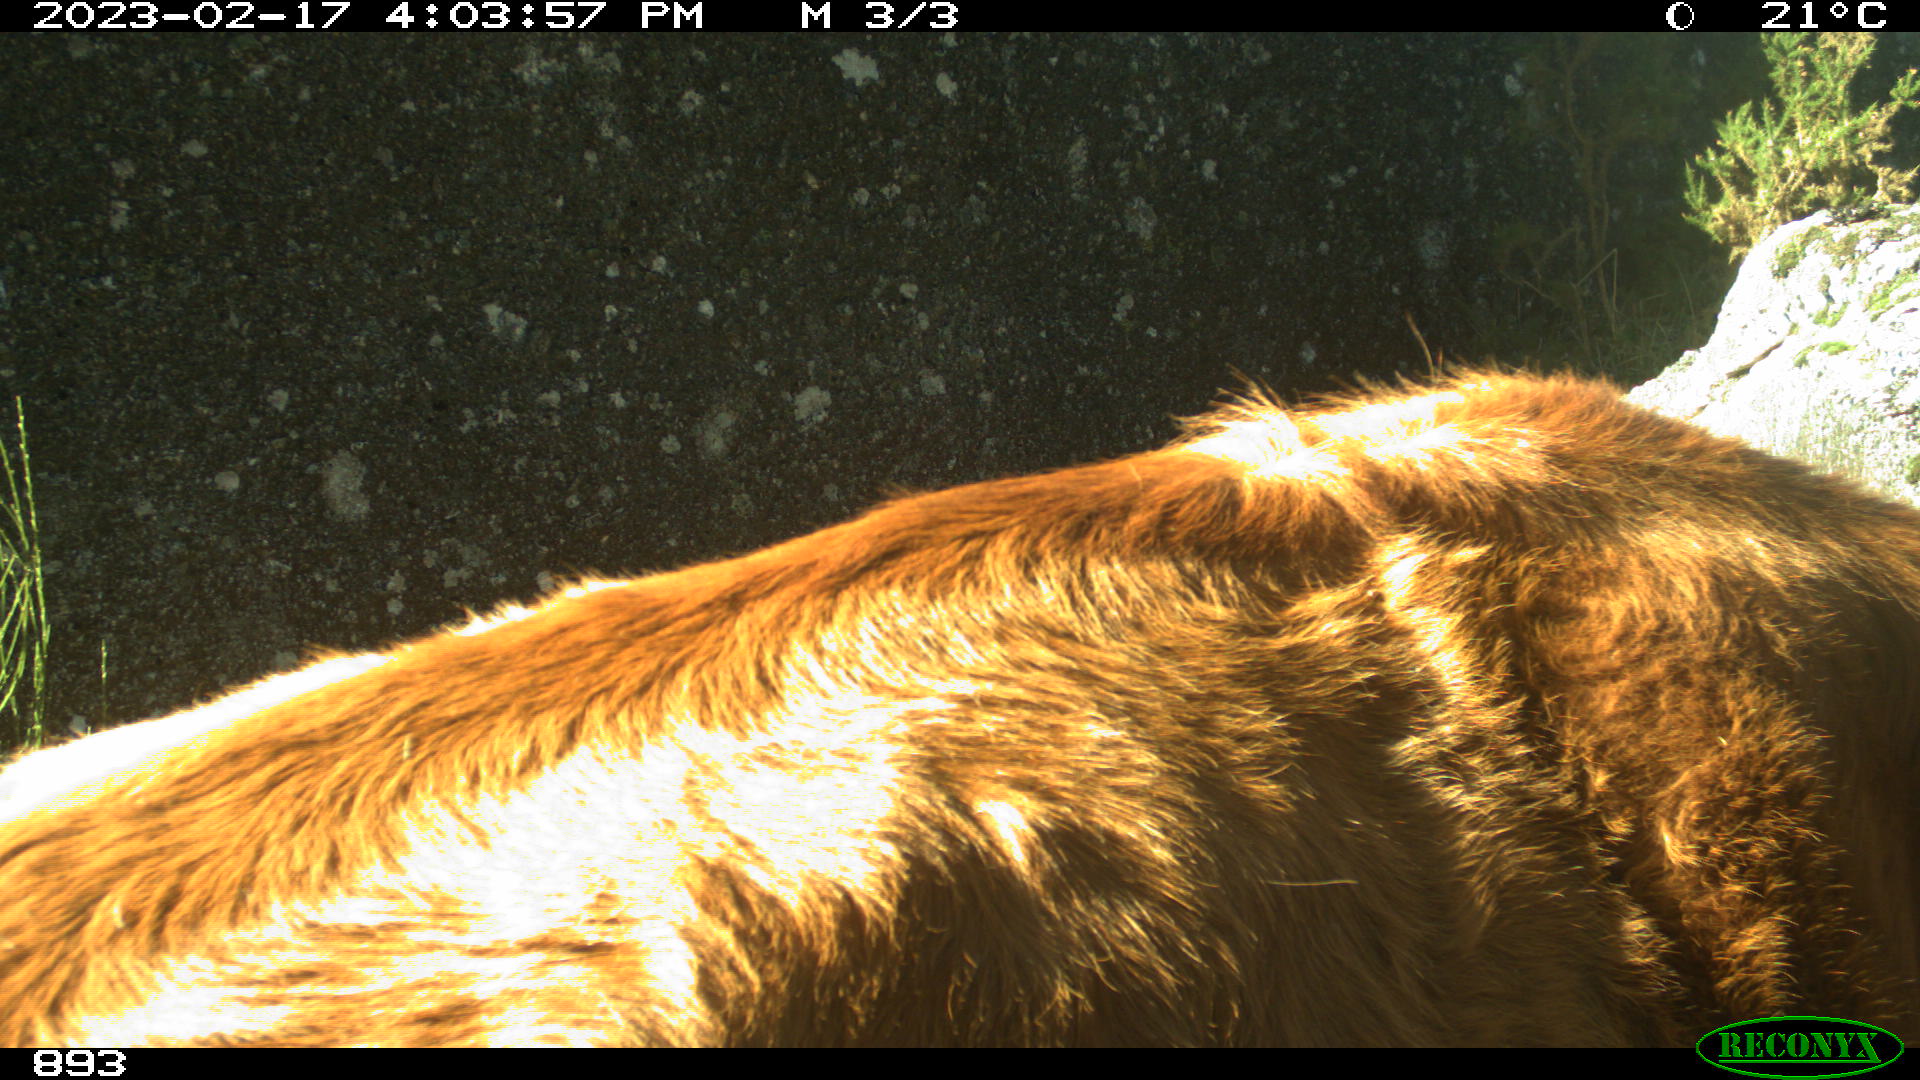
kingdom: Animalia
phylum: Chordata
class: Mammalia
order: Artiodactyla
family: Bovidae
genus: Bos
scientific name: Bos taurus
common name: Domesticated cattle
